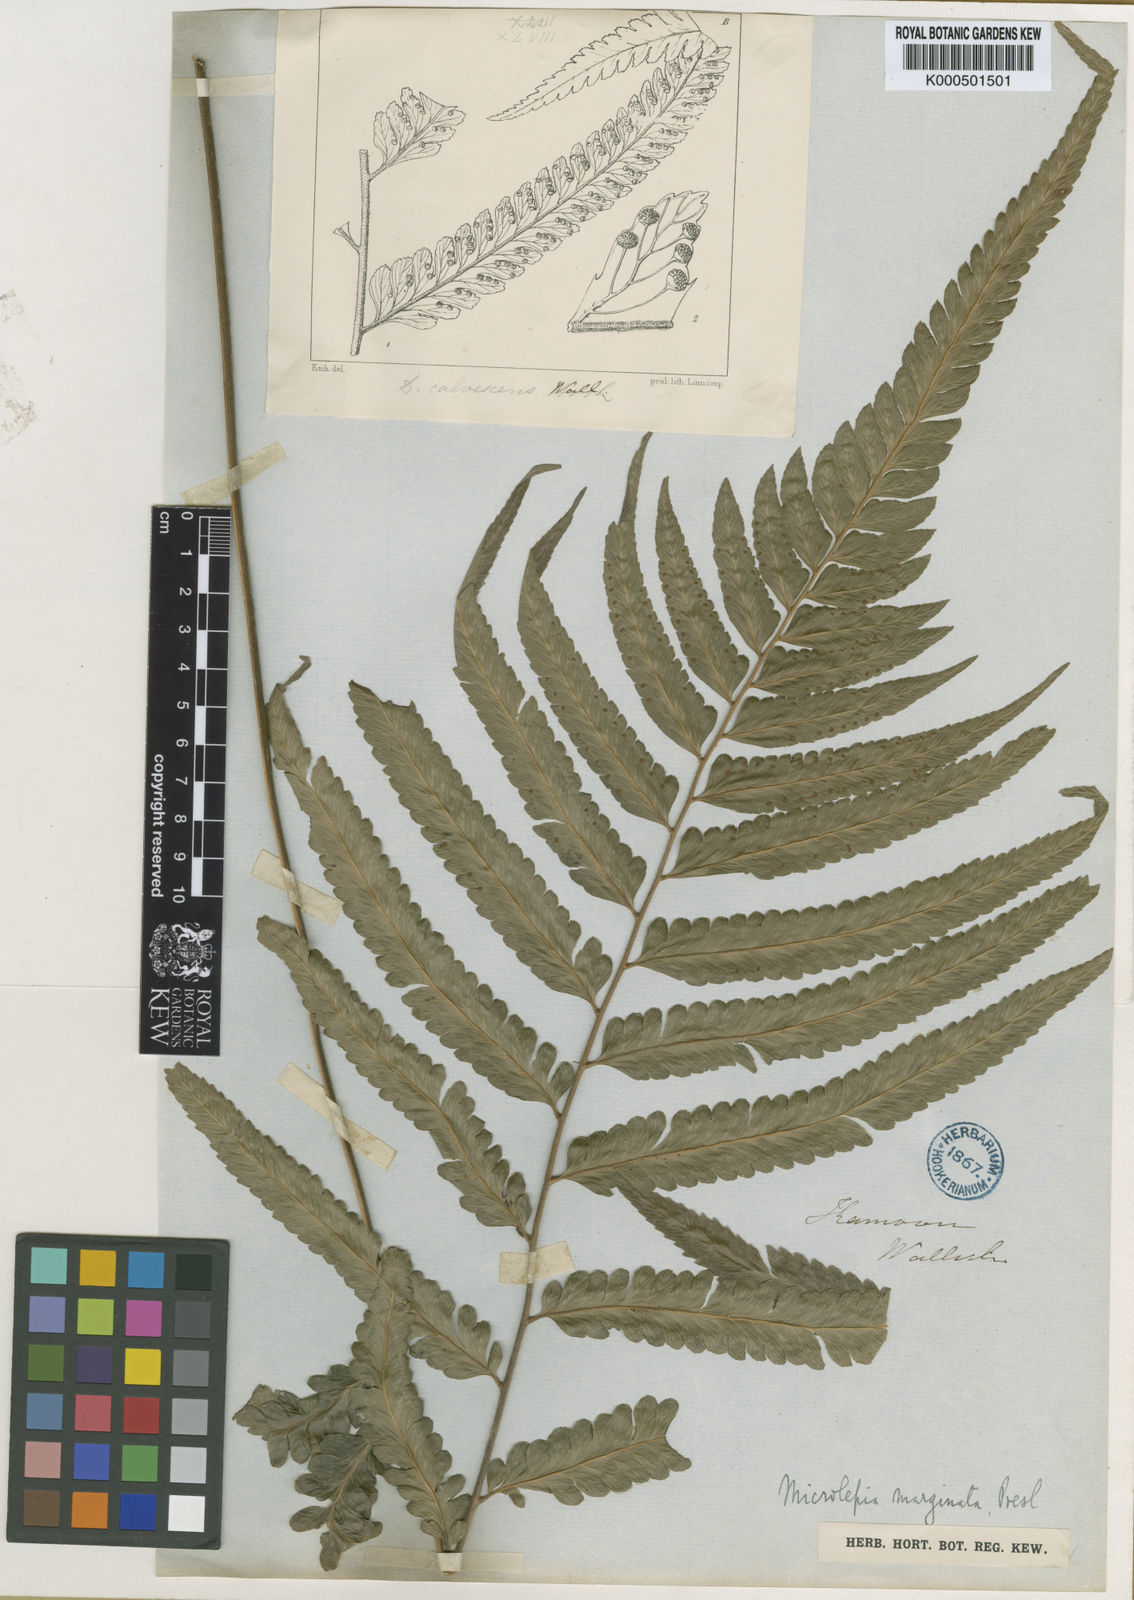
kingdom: Plantae
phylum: Tracheophyta
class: Polypodiopsida
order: Polypodiales
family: Dennstaedtiaceae
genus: Microlepia
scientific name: Microlepia marginata
